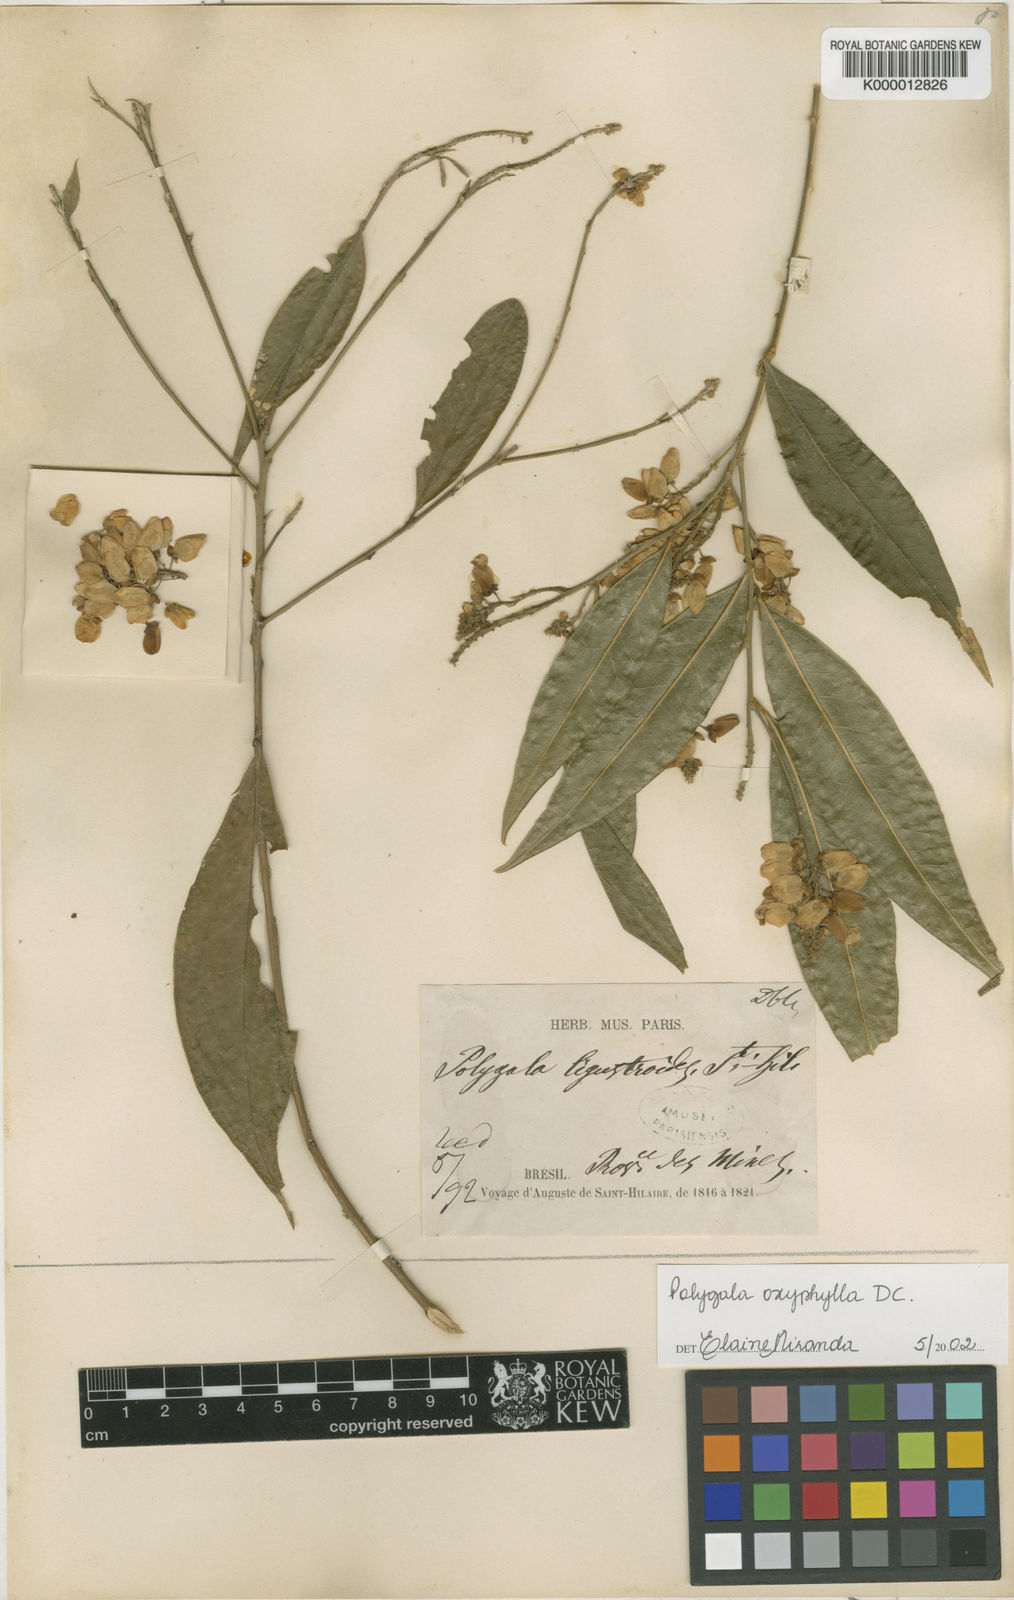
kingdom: Plantae
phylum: Tracheophyta
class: Magnoliopsida
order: Fabales
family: Polygalaceae
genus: Caamembeca
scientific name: Caamembeca oxyphylla
